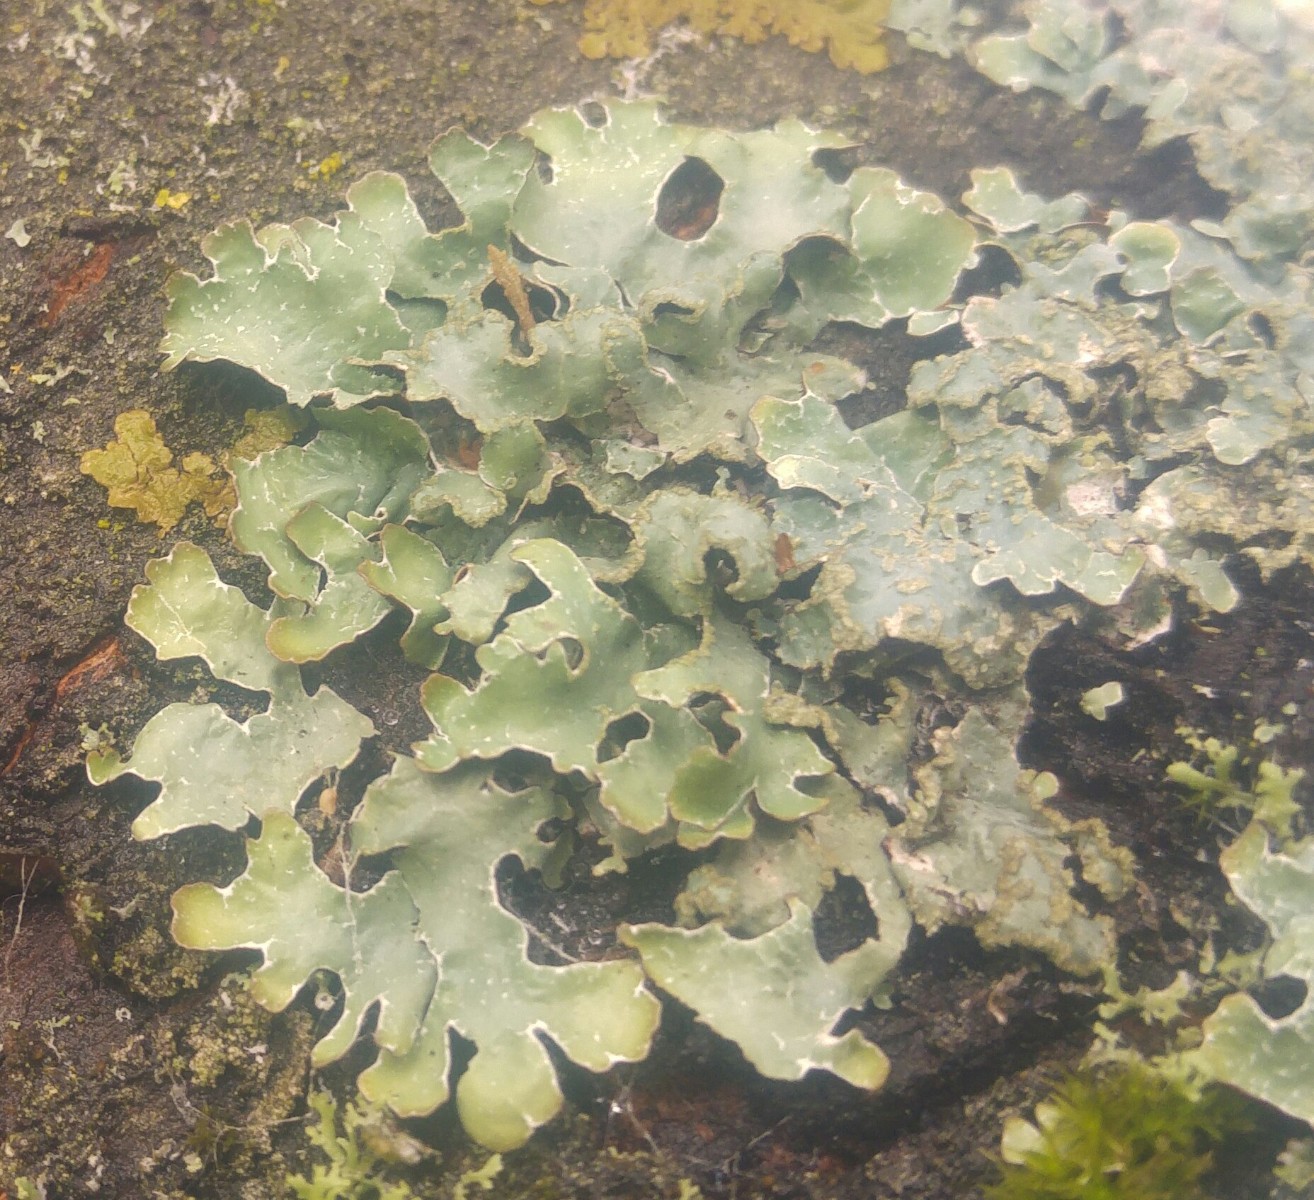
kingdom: Fungi
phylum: Ascomycota
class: Lecanoromycetes
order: Lecanorales
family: Parmeliaceae
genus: Parmelia
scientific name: Parmelia sulcata
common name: rynket skållav
